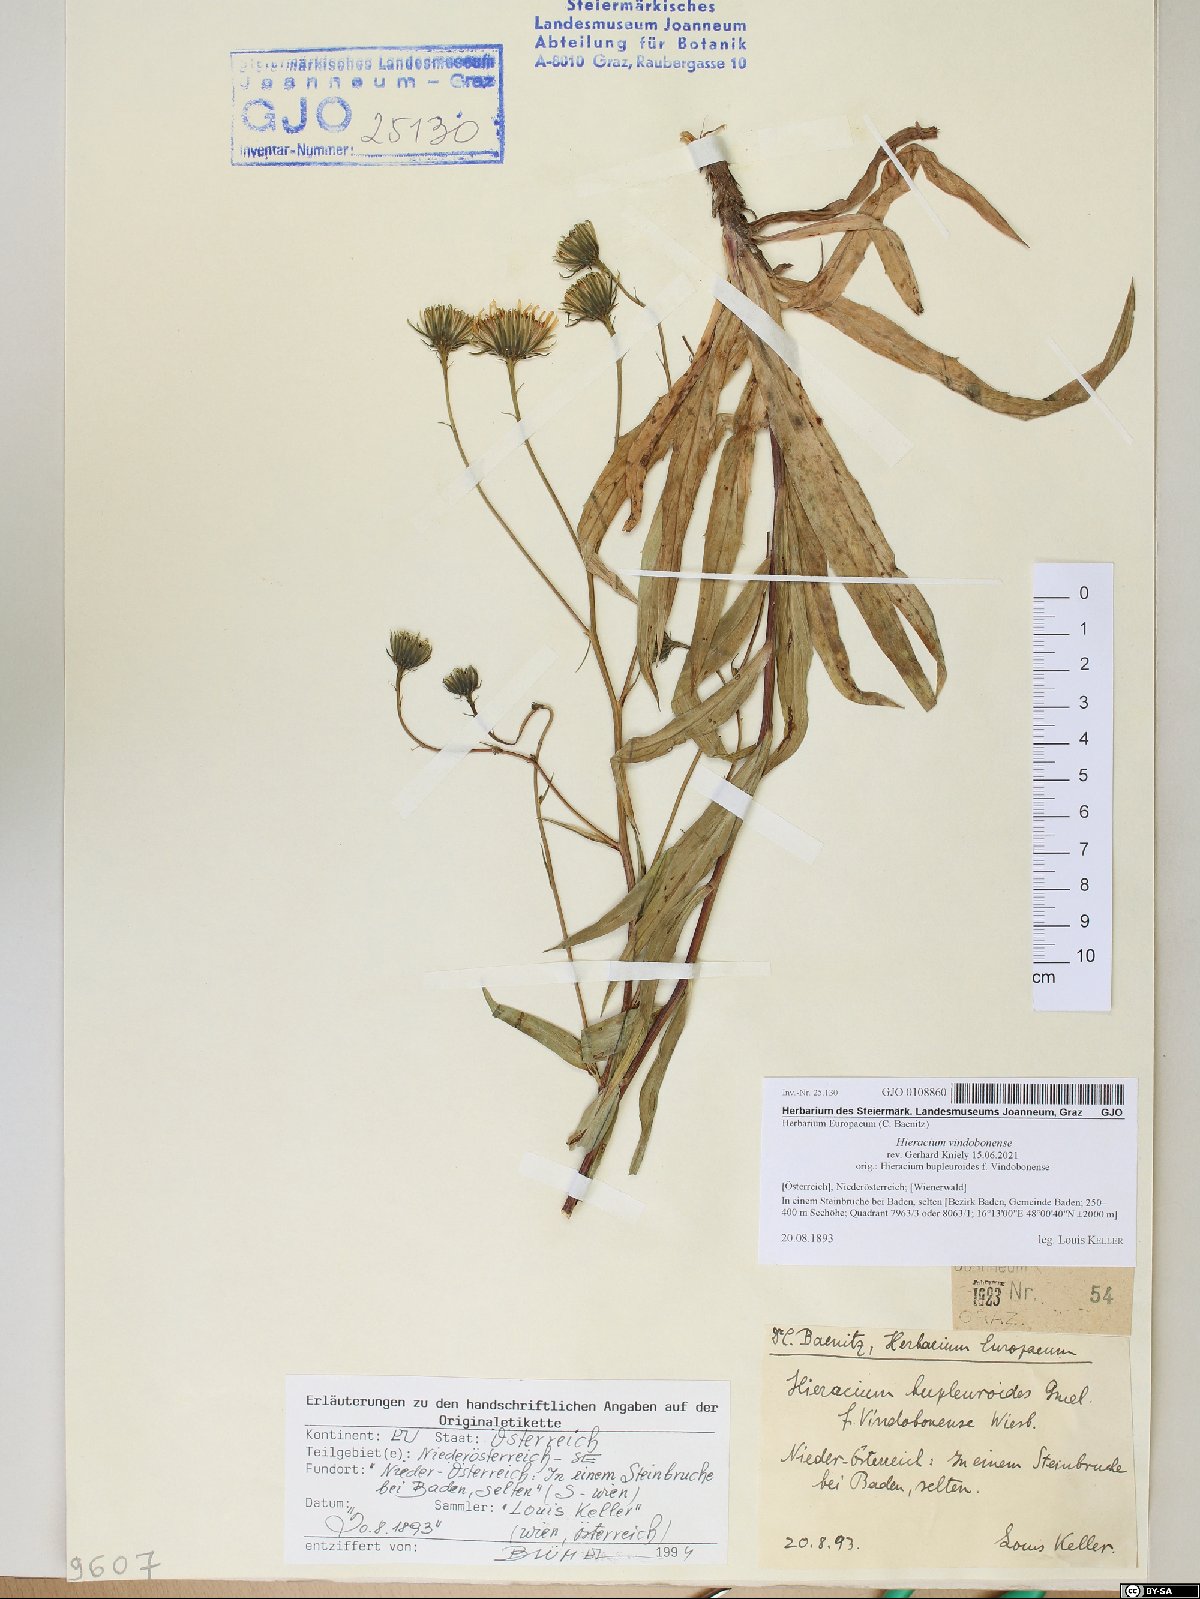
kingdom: Plantae
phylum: Tracheophyta
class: Magnoliopsida
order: Asterales
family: Asteraceae
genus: Hieracium
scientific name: Hieracium vindobonense
